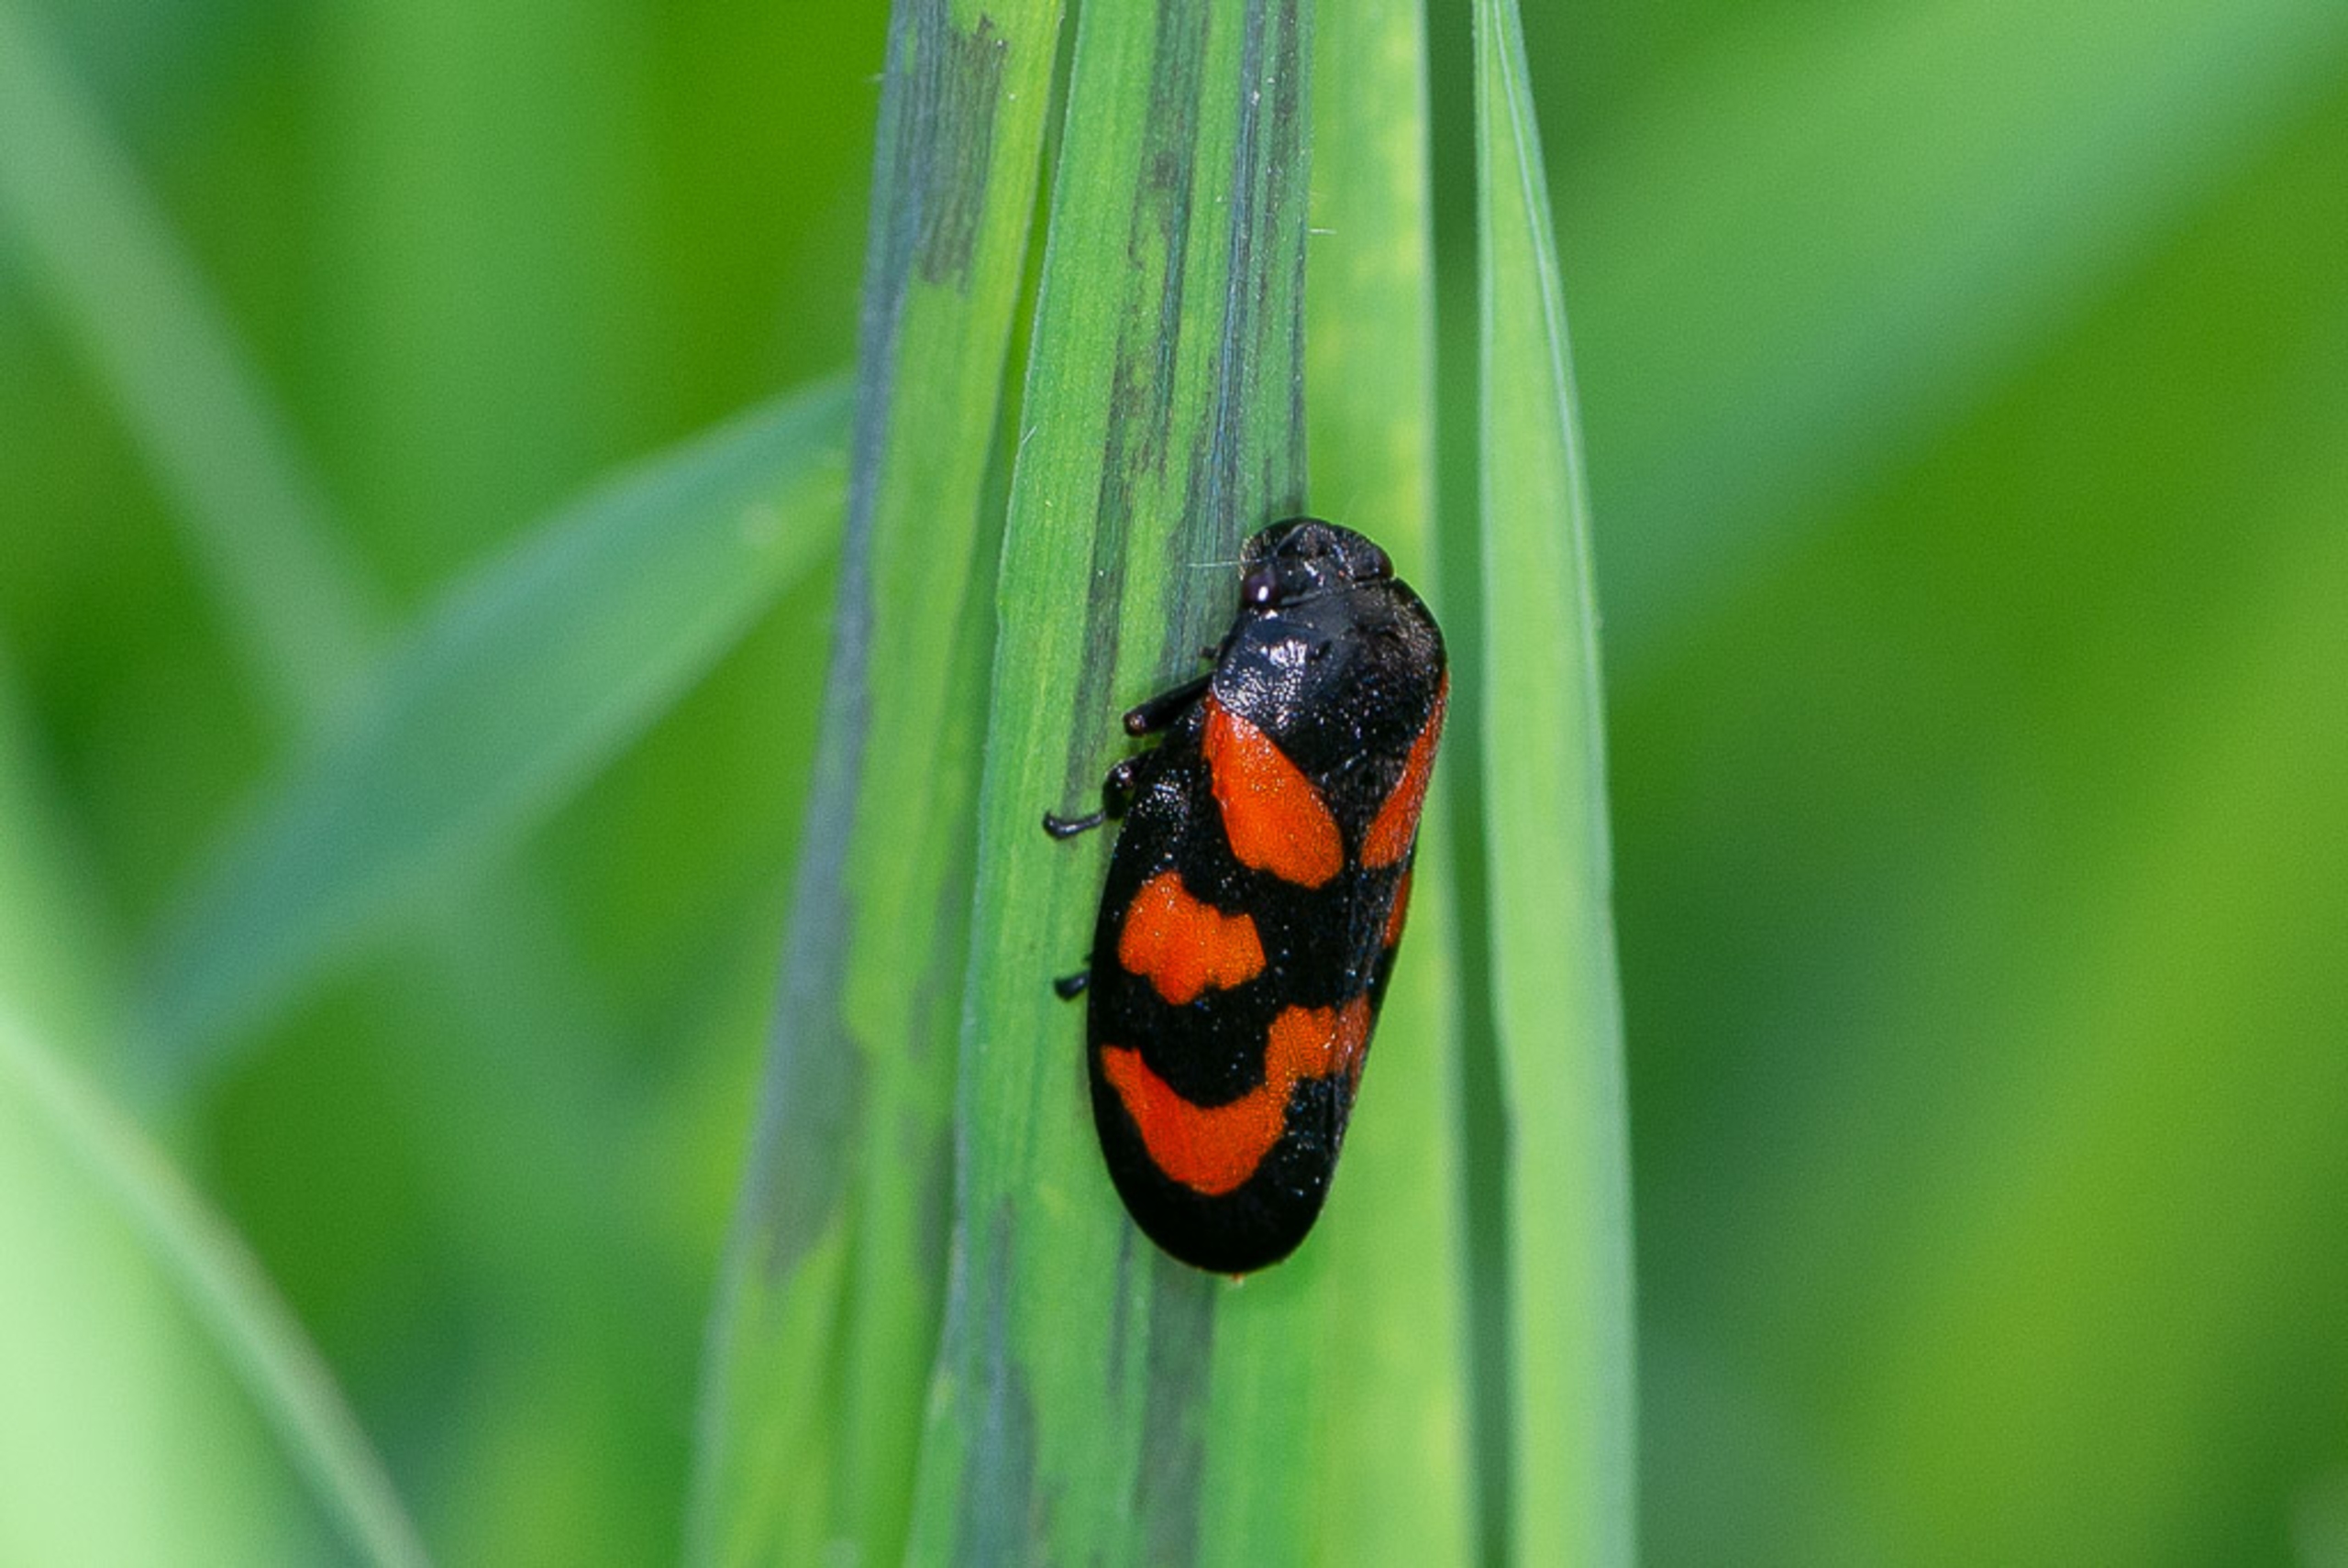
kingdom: Animalia
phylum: Arthropoda
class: Insecta
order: Hemiptera
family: Cercopidae
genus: Cercopis
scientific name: Cercopis vulnerata
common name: Blodcikade
